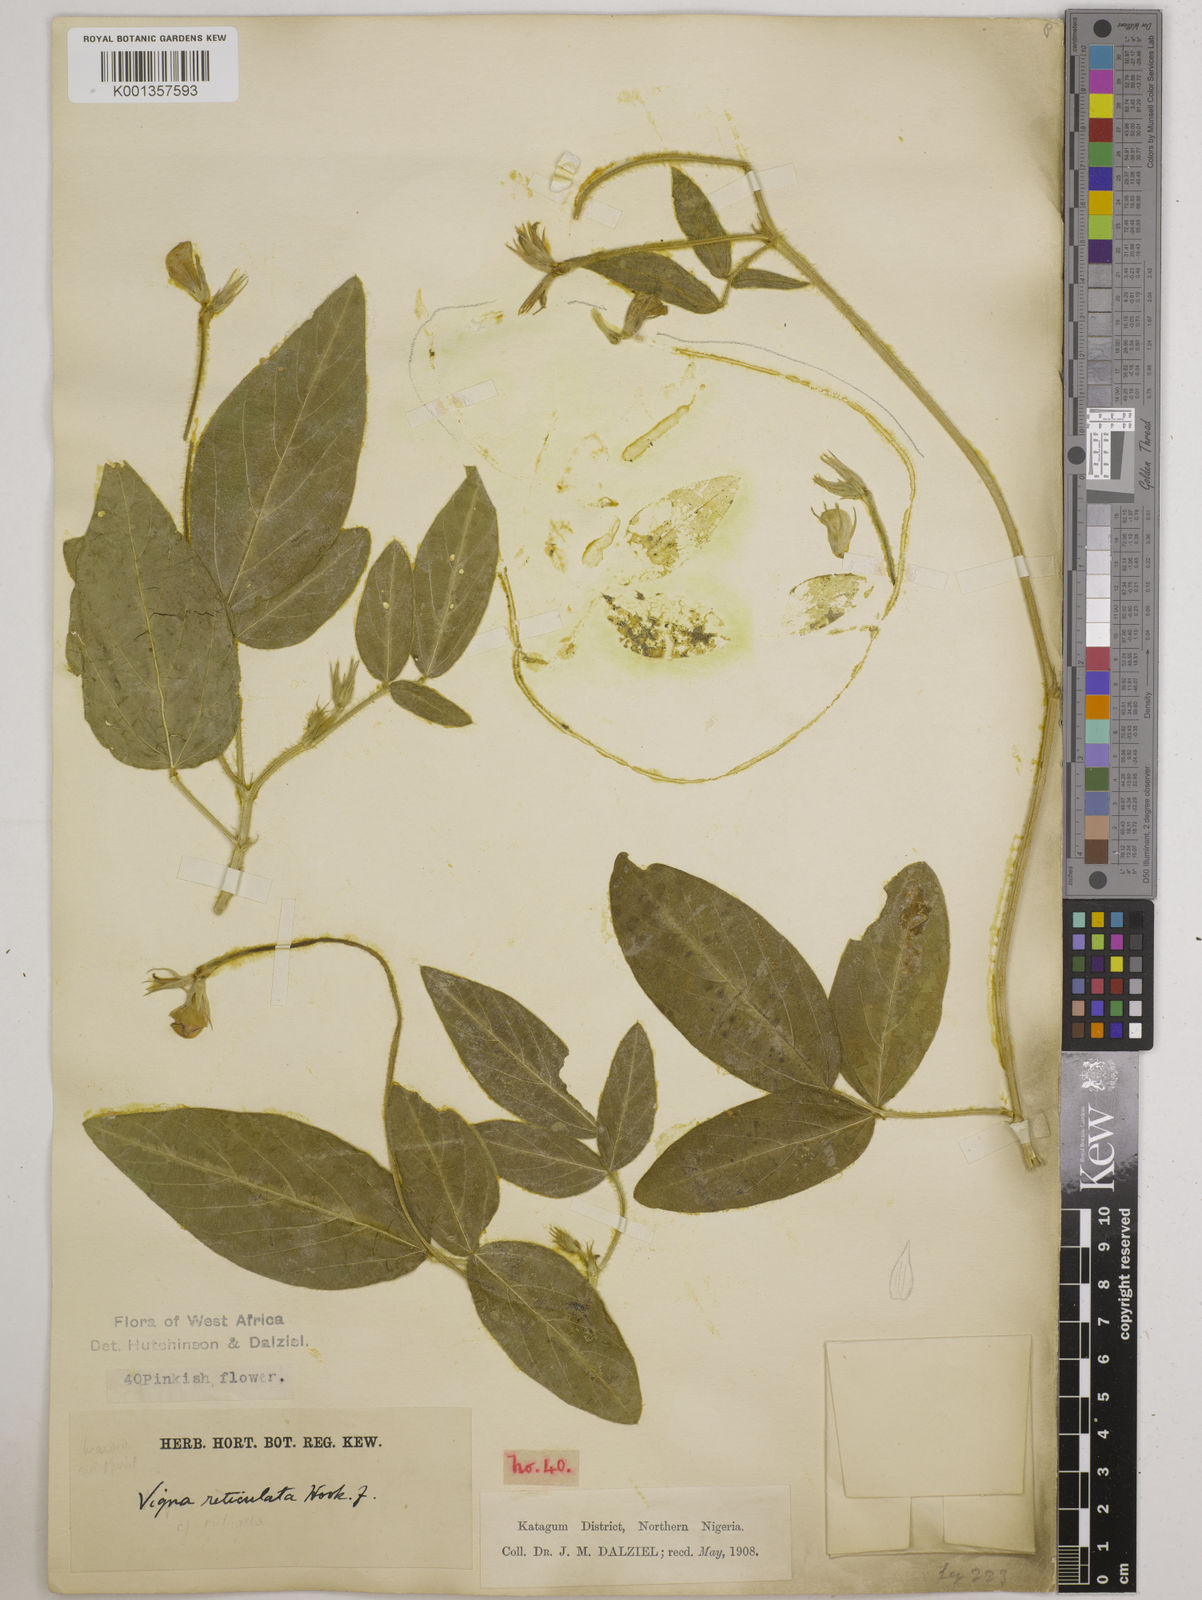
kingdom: Plantae
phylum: Tracheophyta
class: Magnoliopsida
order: Fabales
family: Fabaceae
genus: Vigna
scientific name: Vigna reticulata
